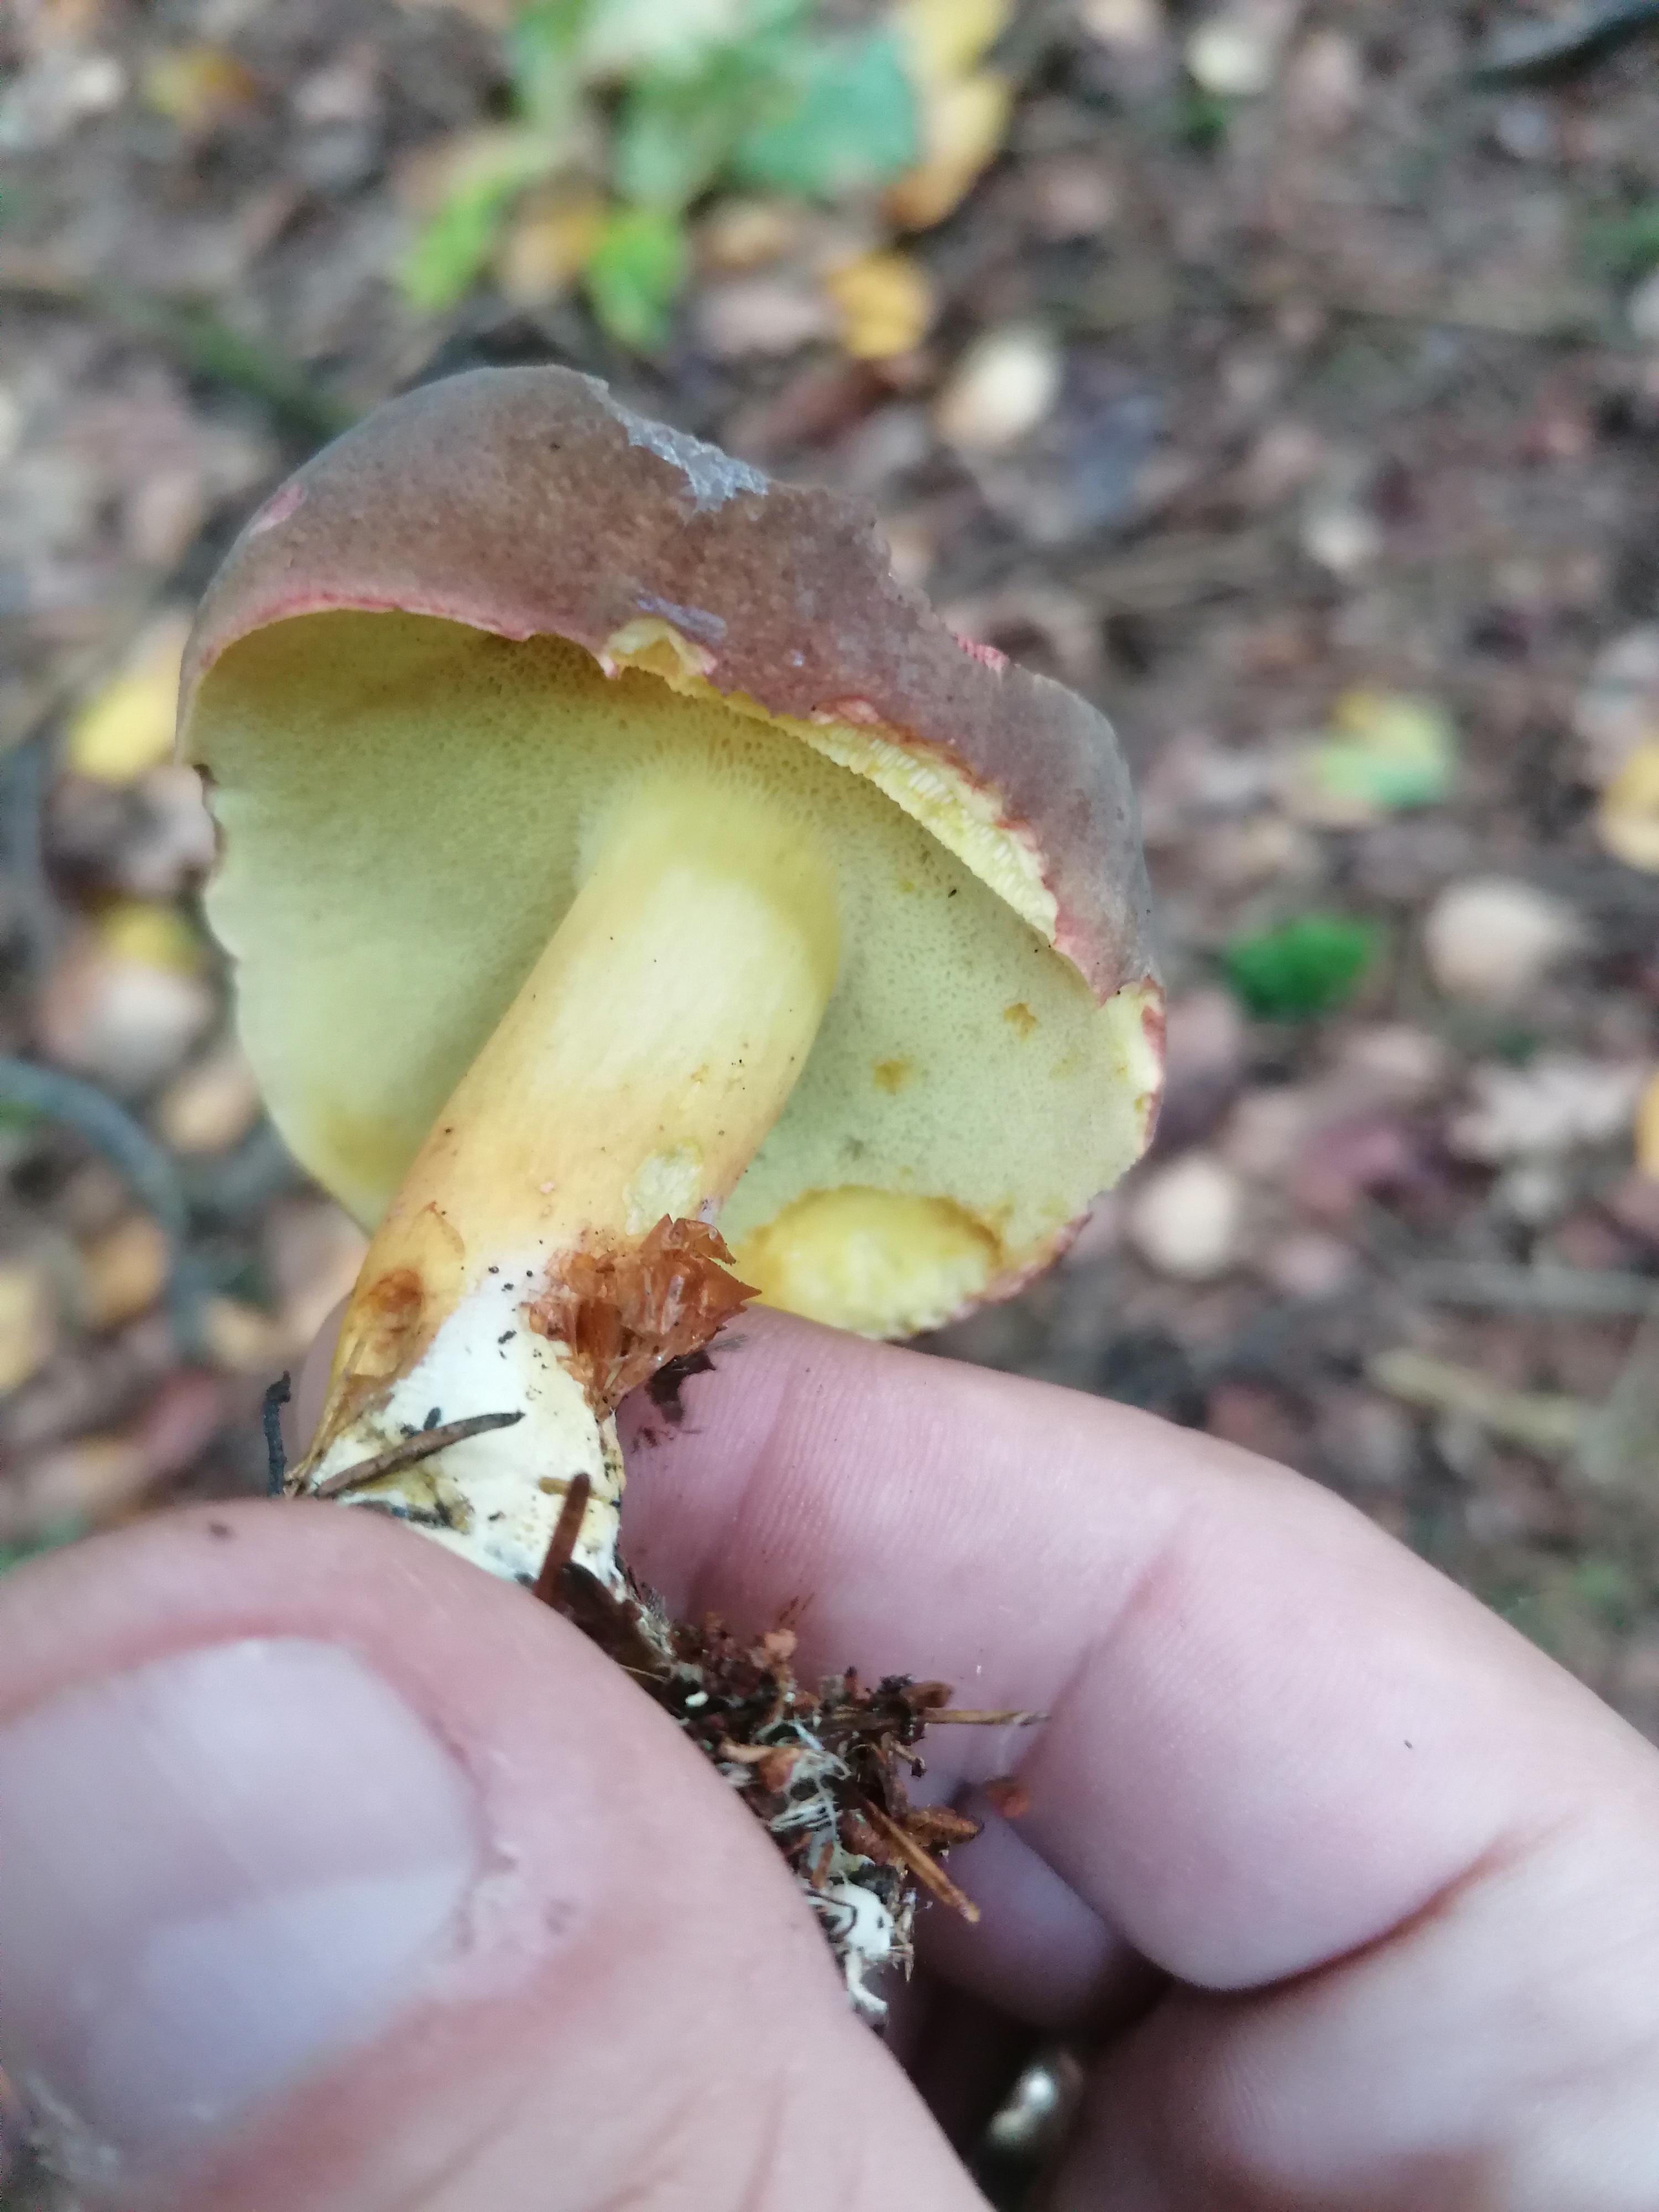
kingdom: Fungi
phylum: Basidiomycota
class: Agaricomycetes
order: Boletales
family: Boletaceae
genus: Xerocomellus
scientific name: Xerocomellus pruinatus
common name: dugget rørhat
